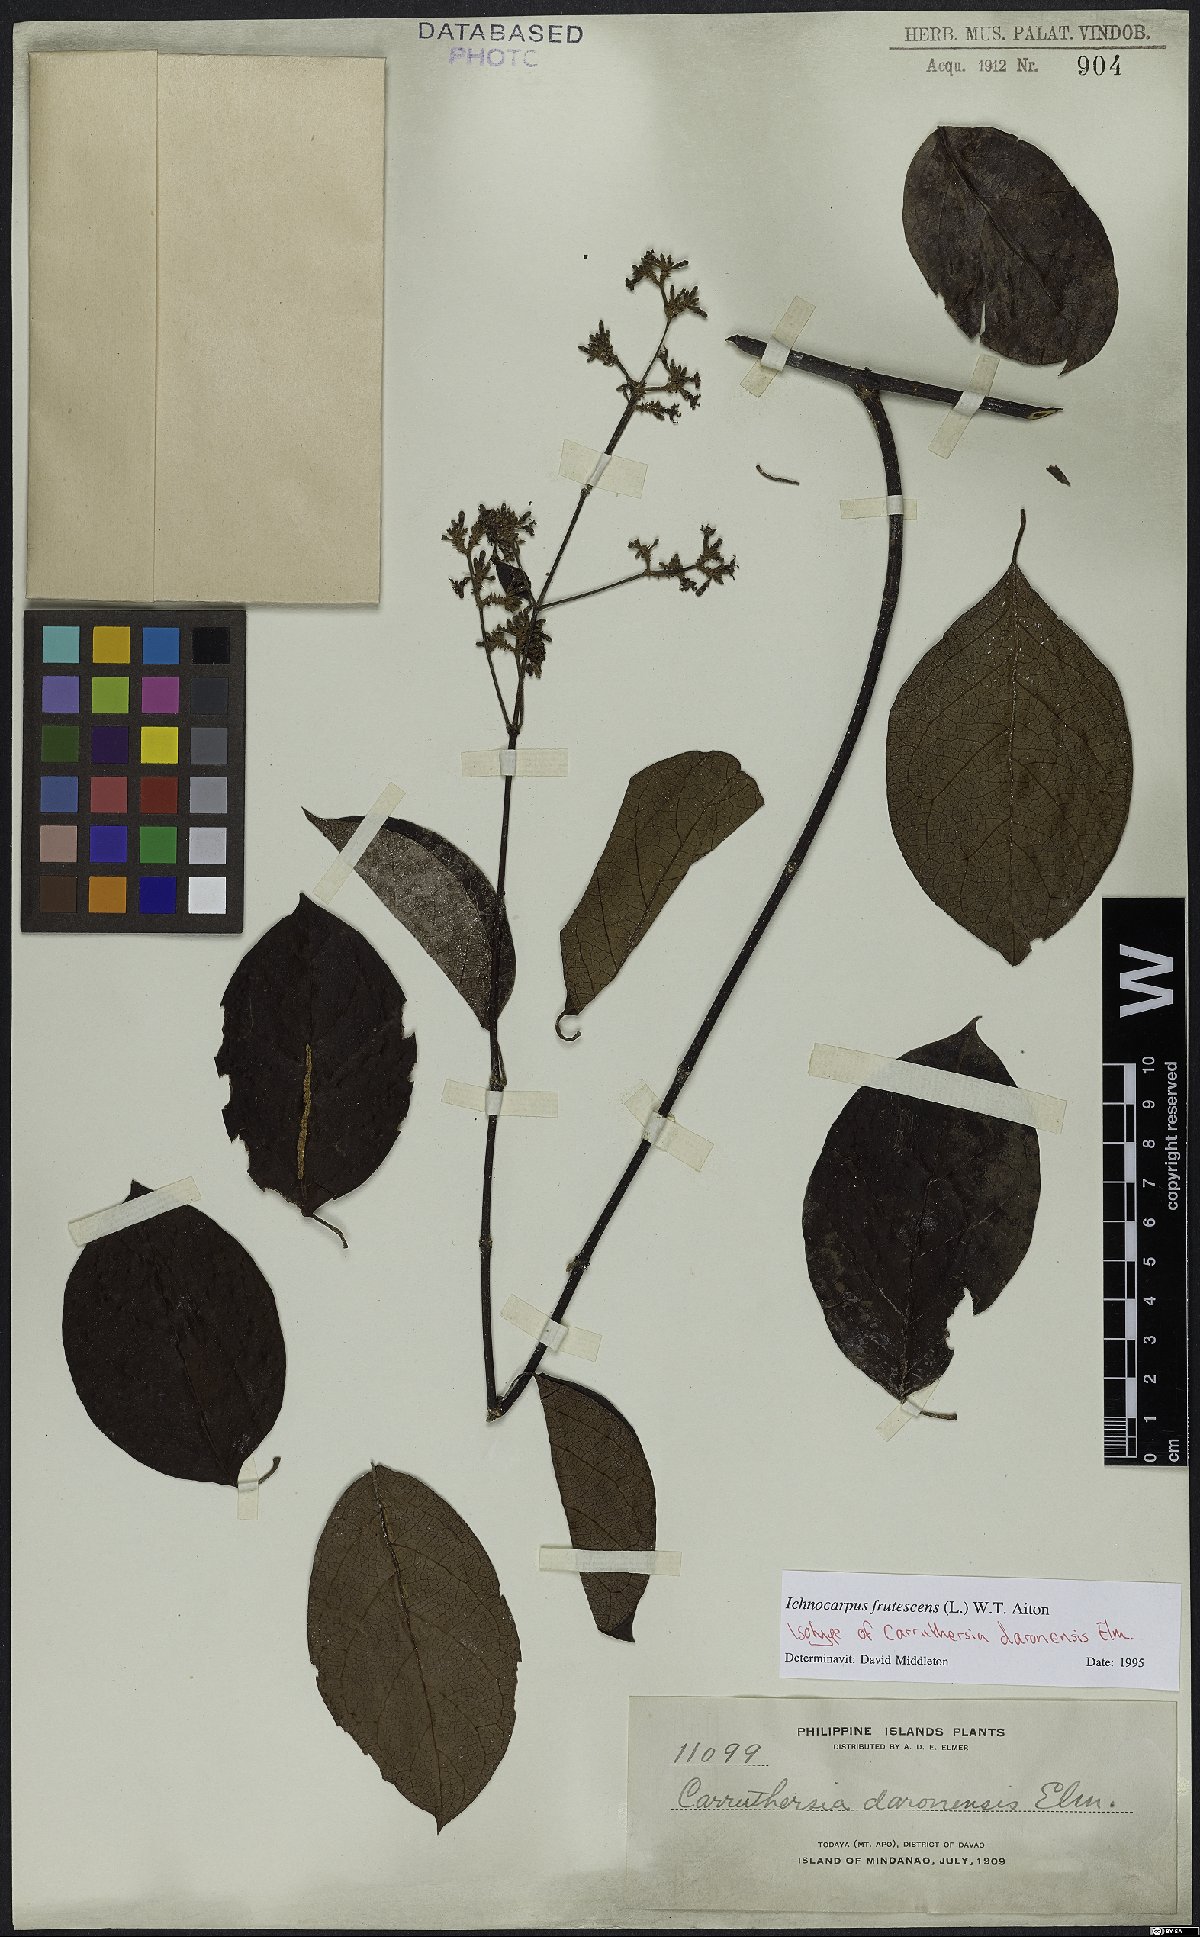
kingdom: Plantae
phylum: Tracheophyta
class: Magnoliopsida
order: Gentianales
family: Apocynaceae
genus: Ichnocarpus
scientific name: Ichnocarpus frutescens
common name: Ichnocarpus
